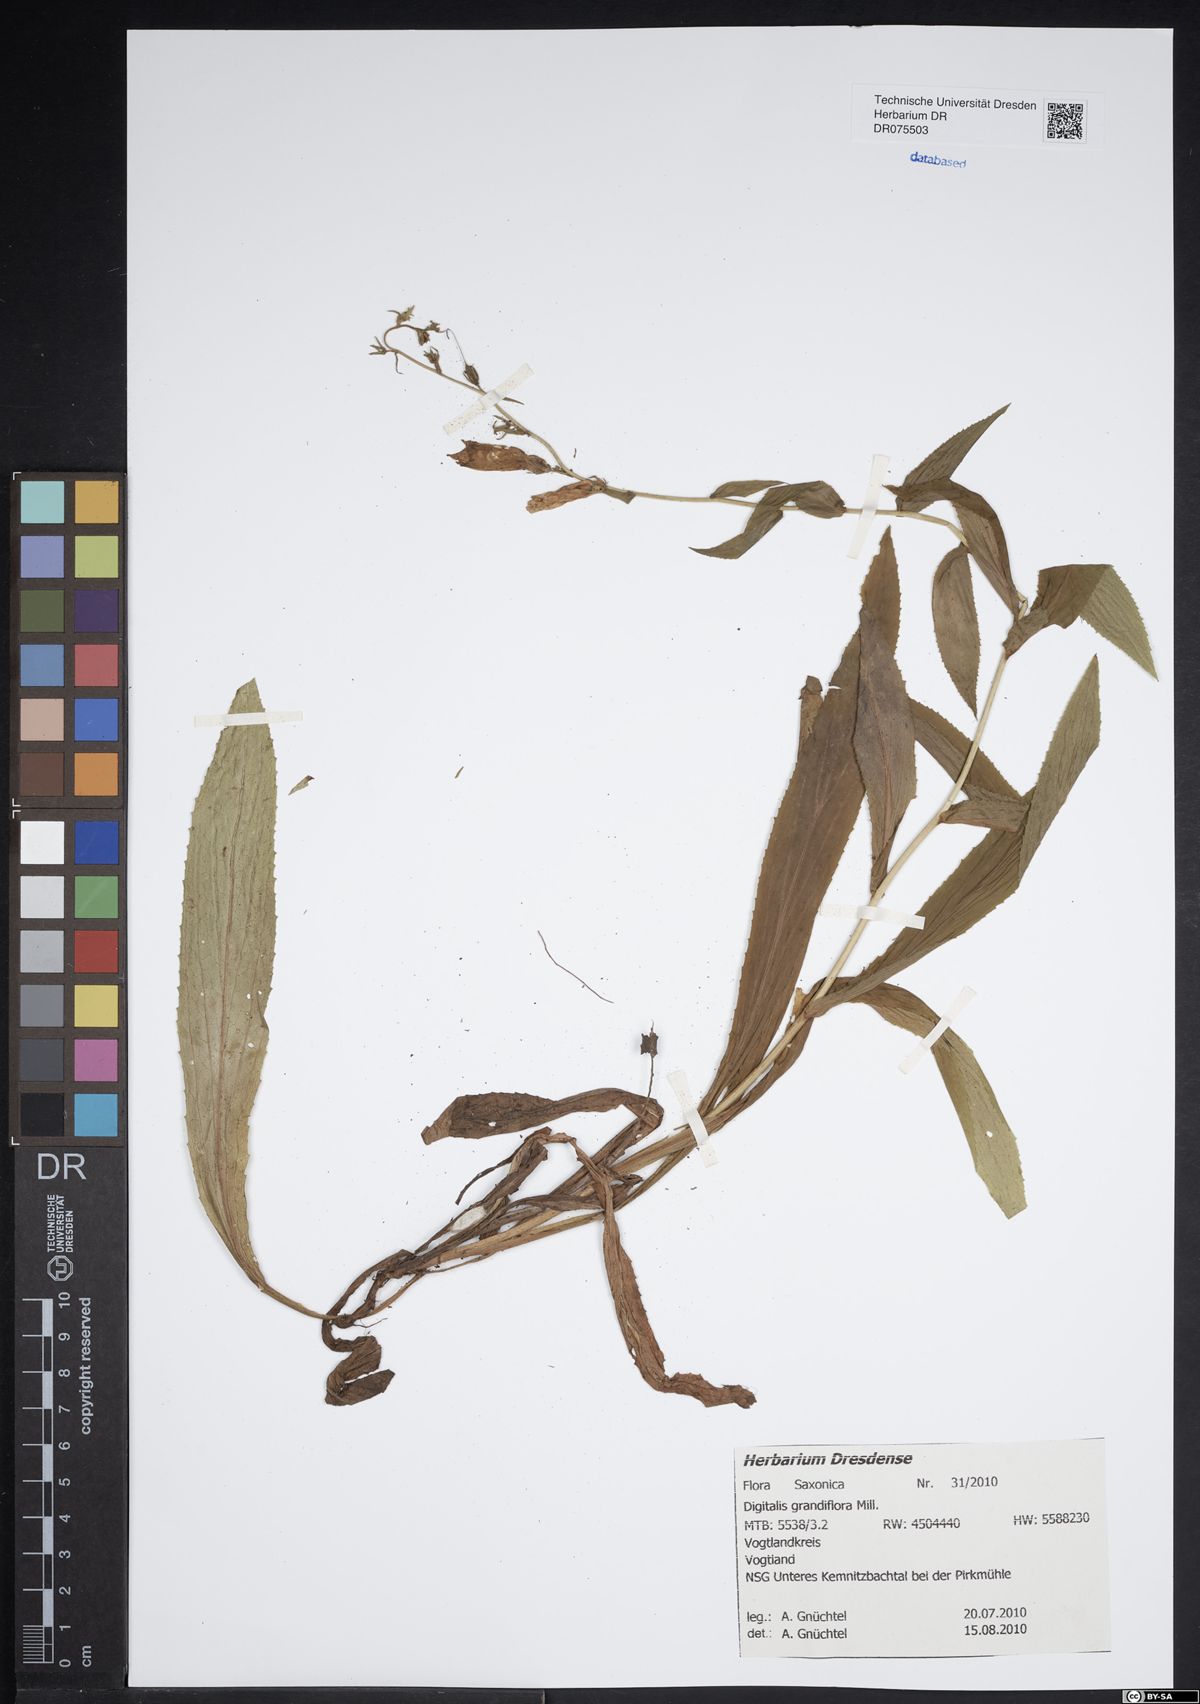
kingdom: Plantae
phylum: Tracheophyta
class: Magnoliopsida
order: Lamiales
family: Plantaginaceae
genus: Digitalis
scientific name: Digitalis grandiflora
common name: Yellow foxglove
